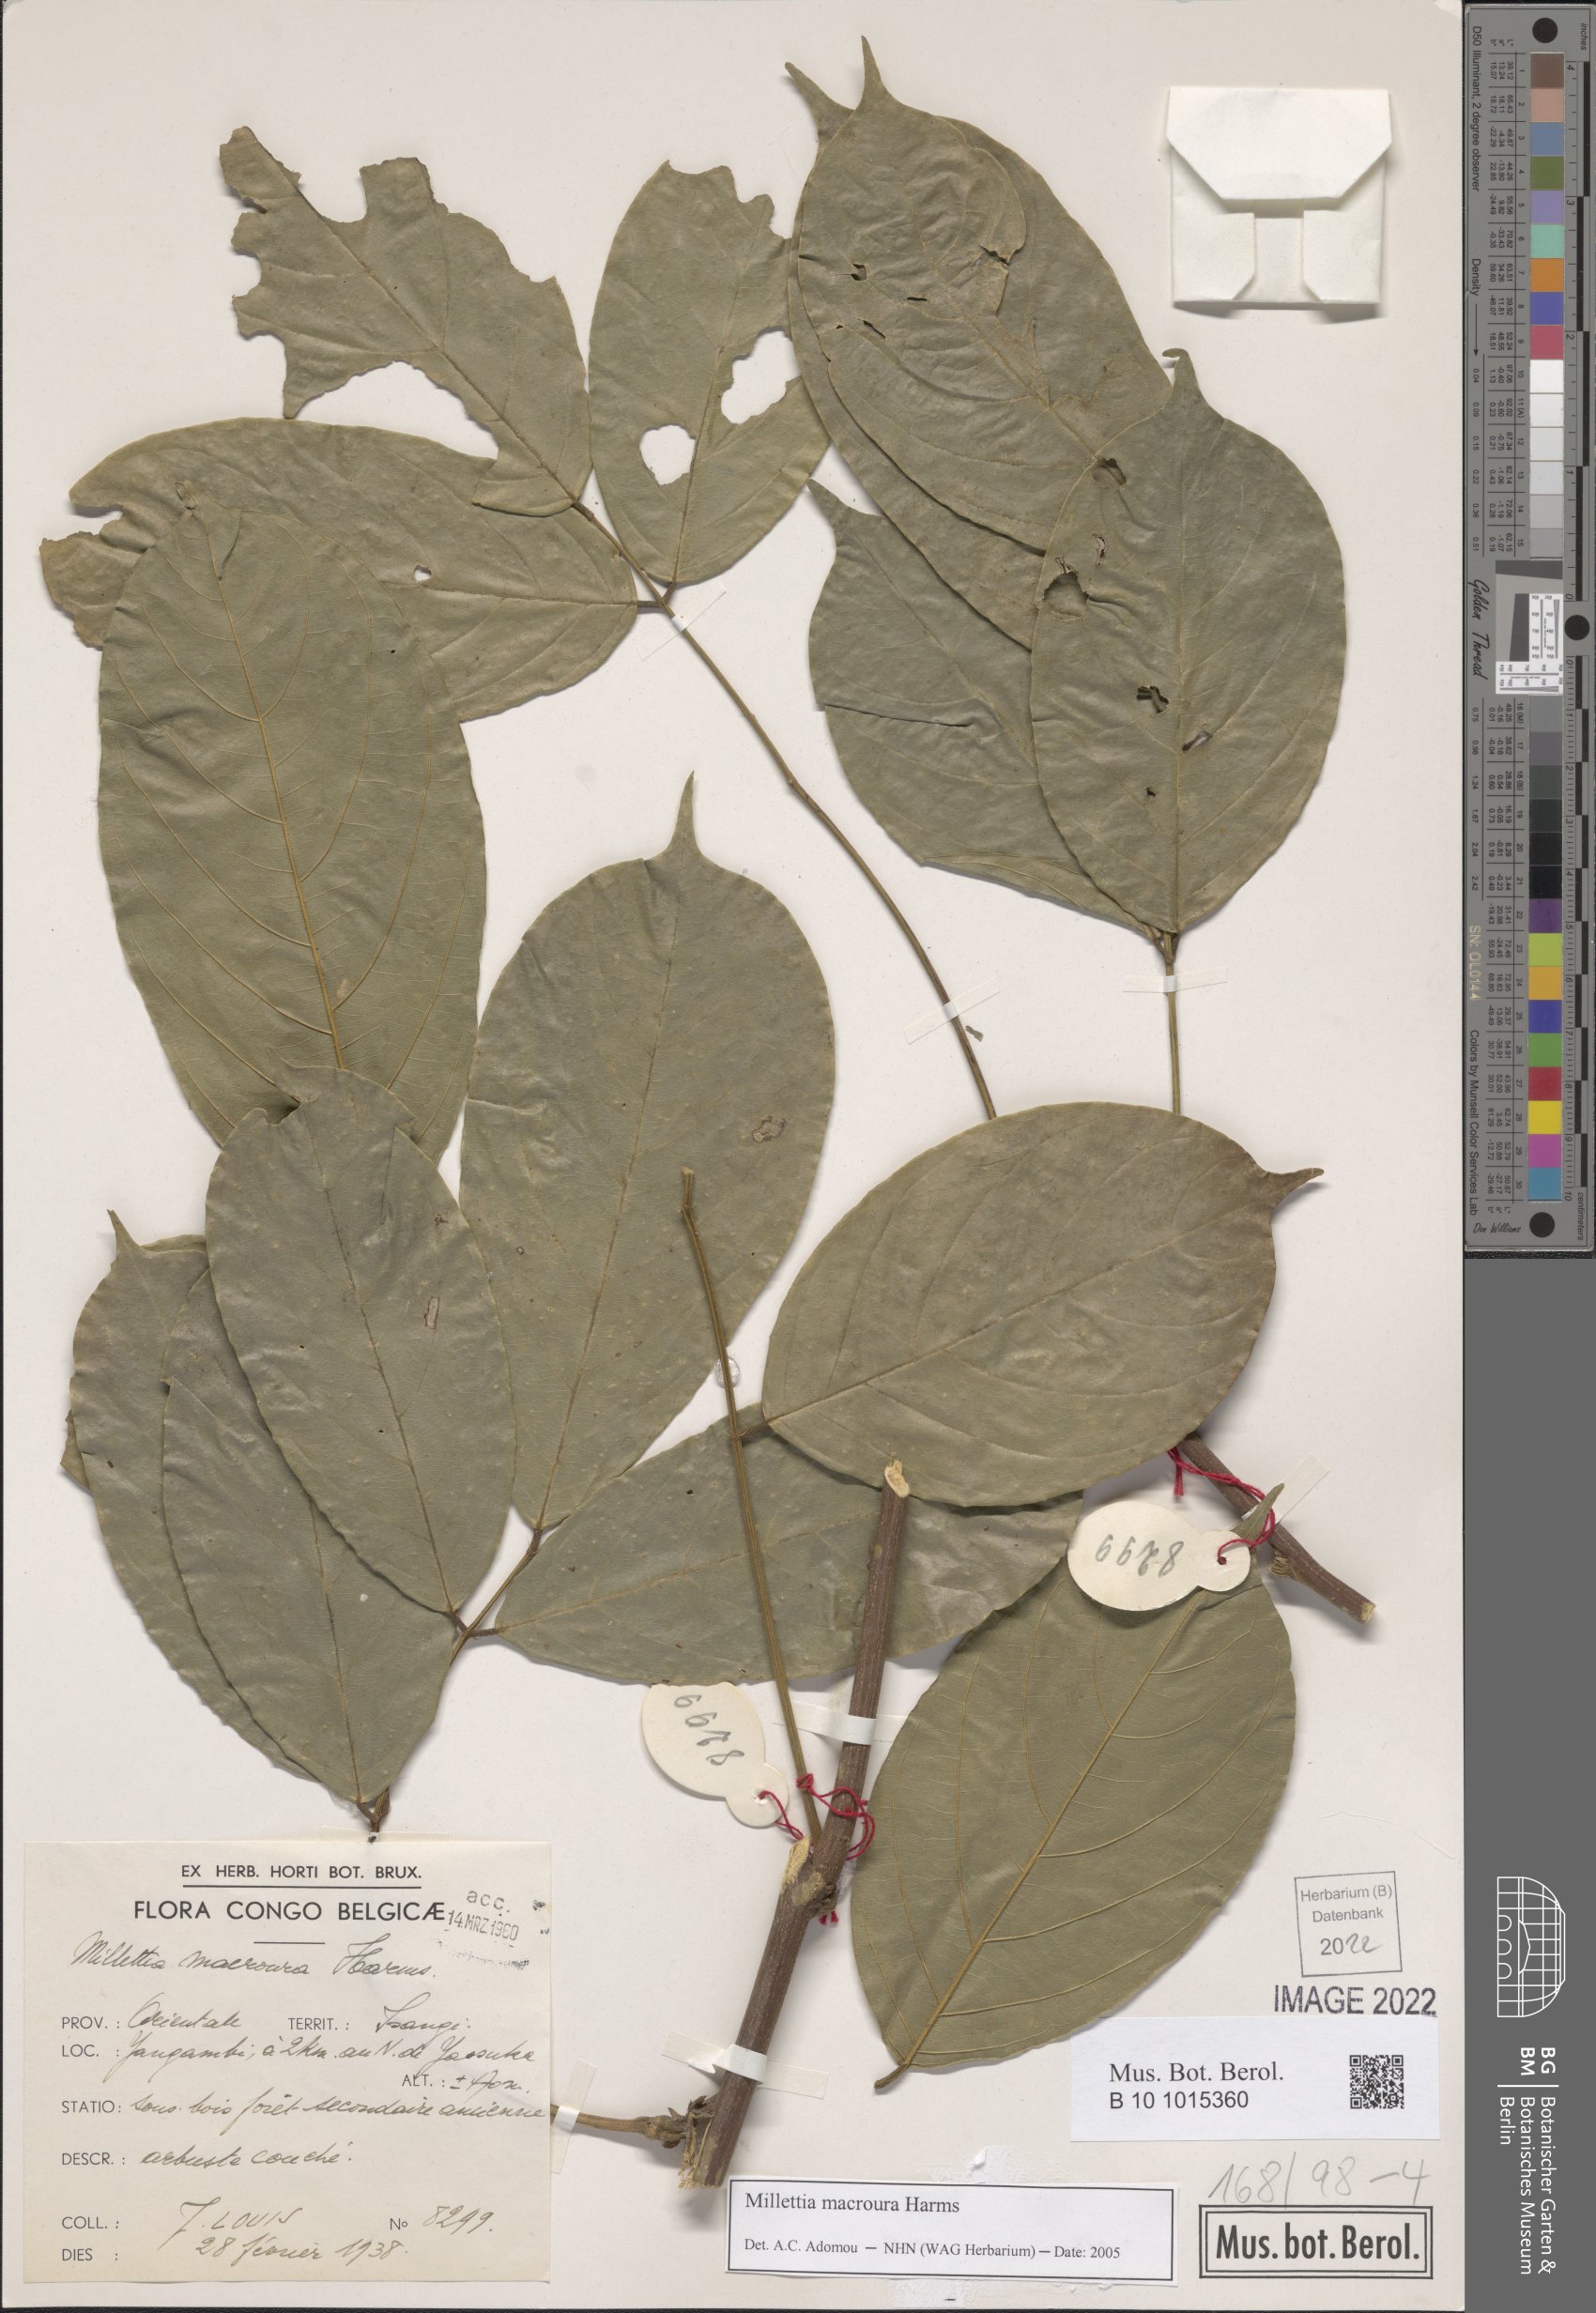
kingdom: Plantae
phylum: Tracheophyta
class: Magnoliopsida
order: Fabales
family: Fabaceae
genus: Millettia
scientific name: Millettia macroura
